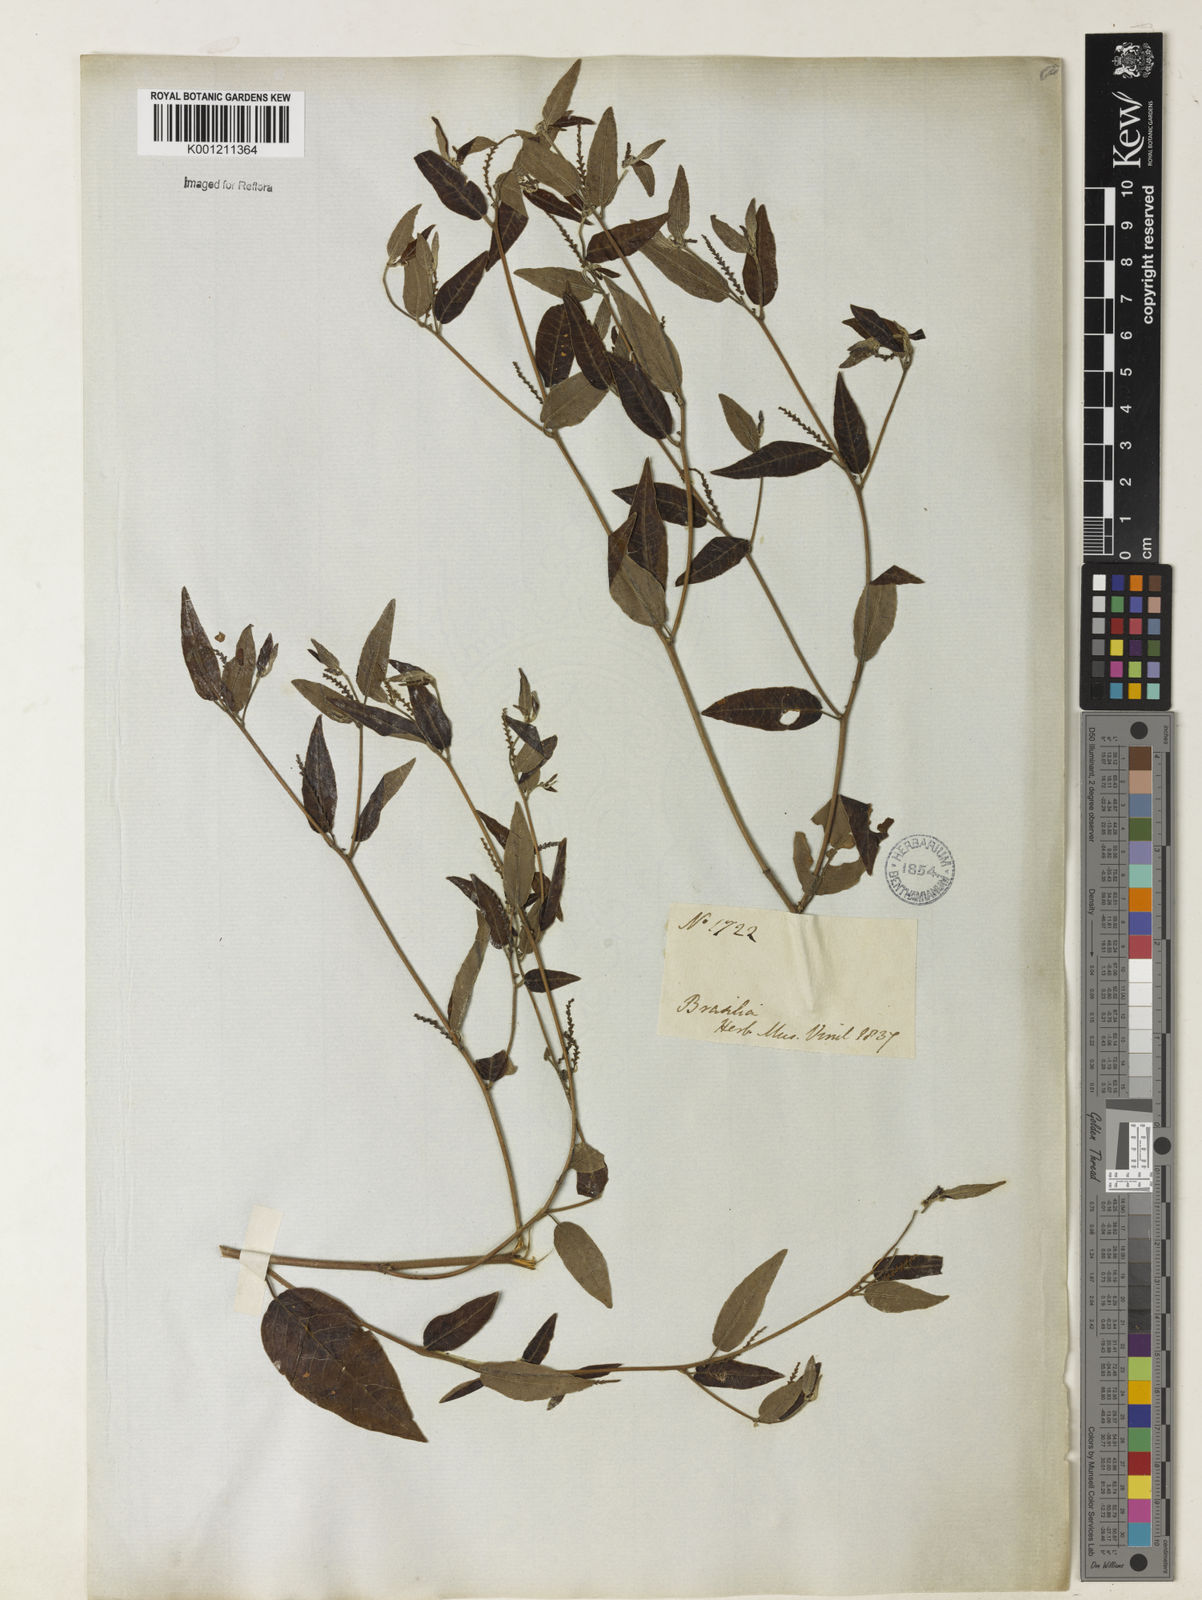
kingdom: Plantae
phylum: Tracheophyta
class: Magnoliopsida
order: Malpighiales
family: Euphorbiaceae
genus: Microstachys
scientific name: Microstachys corniculata
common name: Hato tejas
